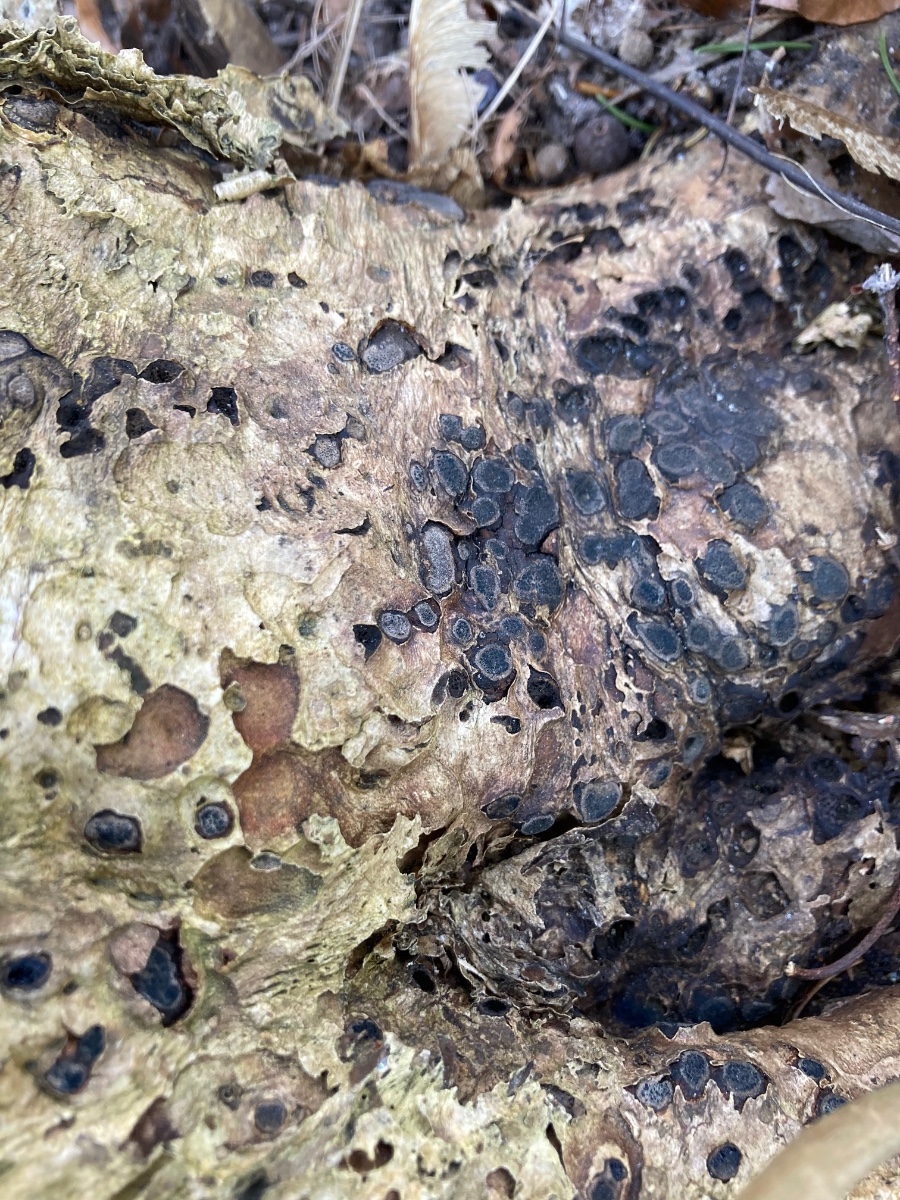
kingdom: Fungi
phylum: Ascomycota
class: Sordariomycetes
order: Boliniales
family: Boliniaceae
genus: Camaropella
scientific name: Camaropella lutea
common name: gulsplint-kulsnegl
